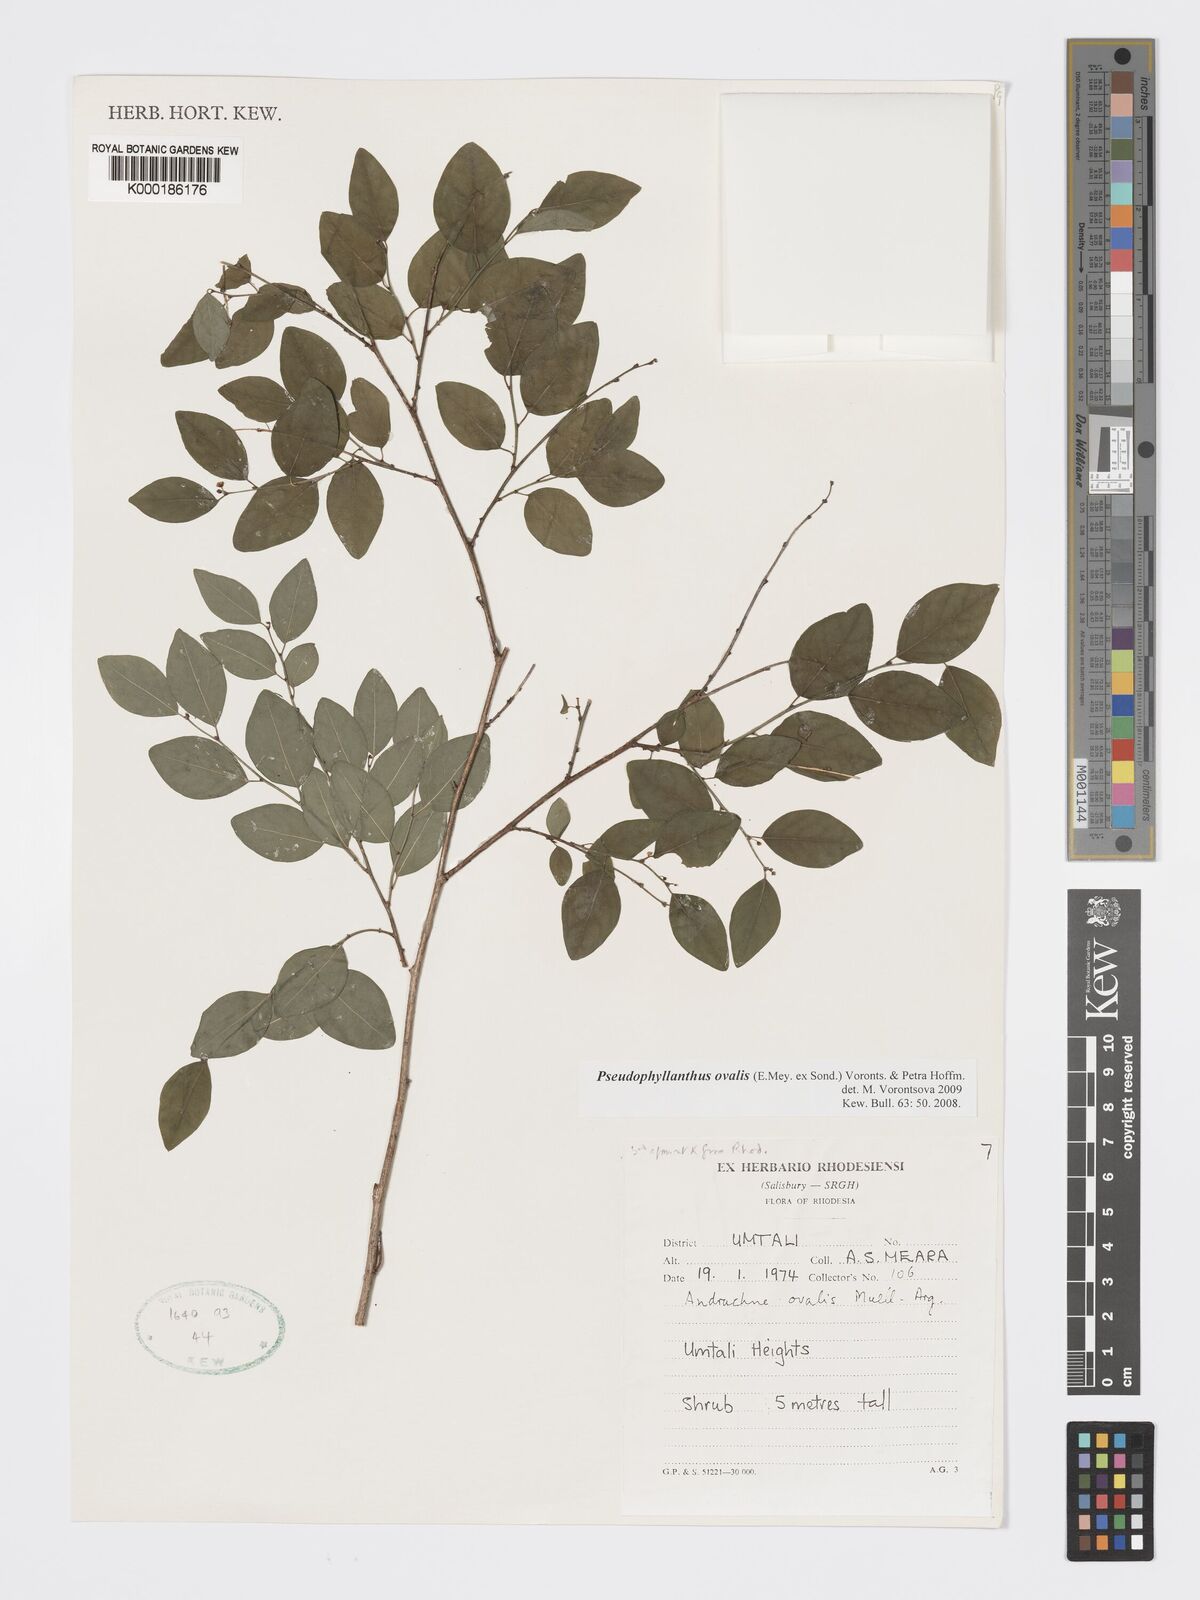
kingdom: Plantae
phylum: Tracheophyta
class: Magnoliopsida
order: Malpighiales
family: Phyllanthaceae
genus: Pseudophyllanthus
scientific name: Pseudophyllanthus ovalis
